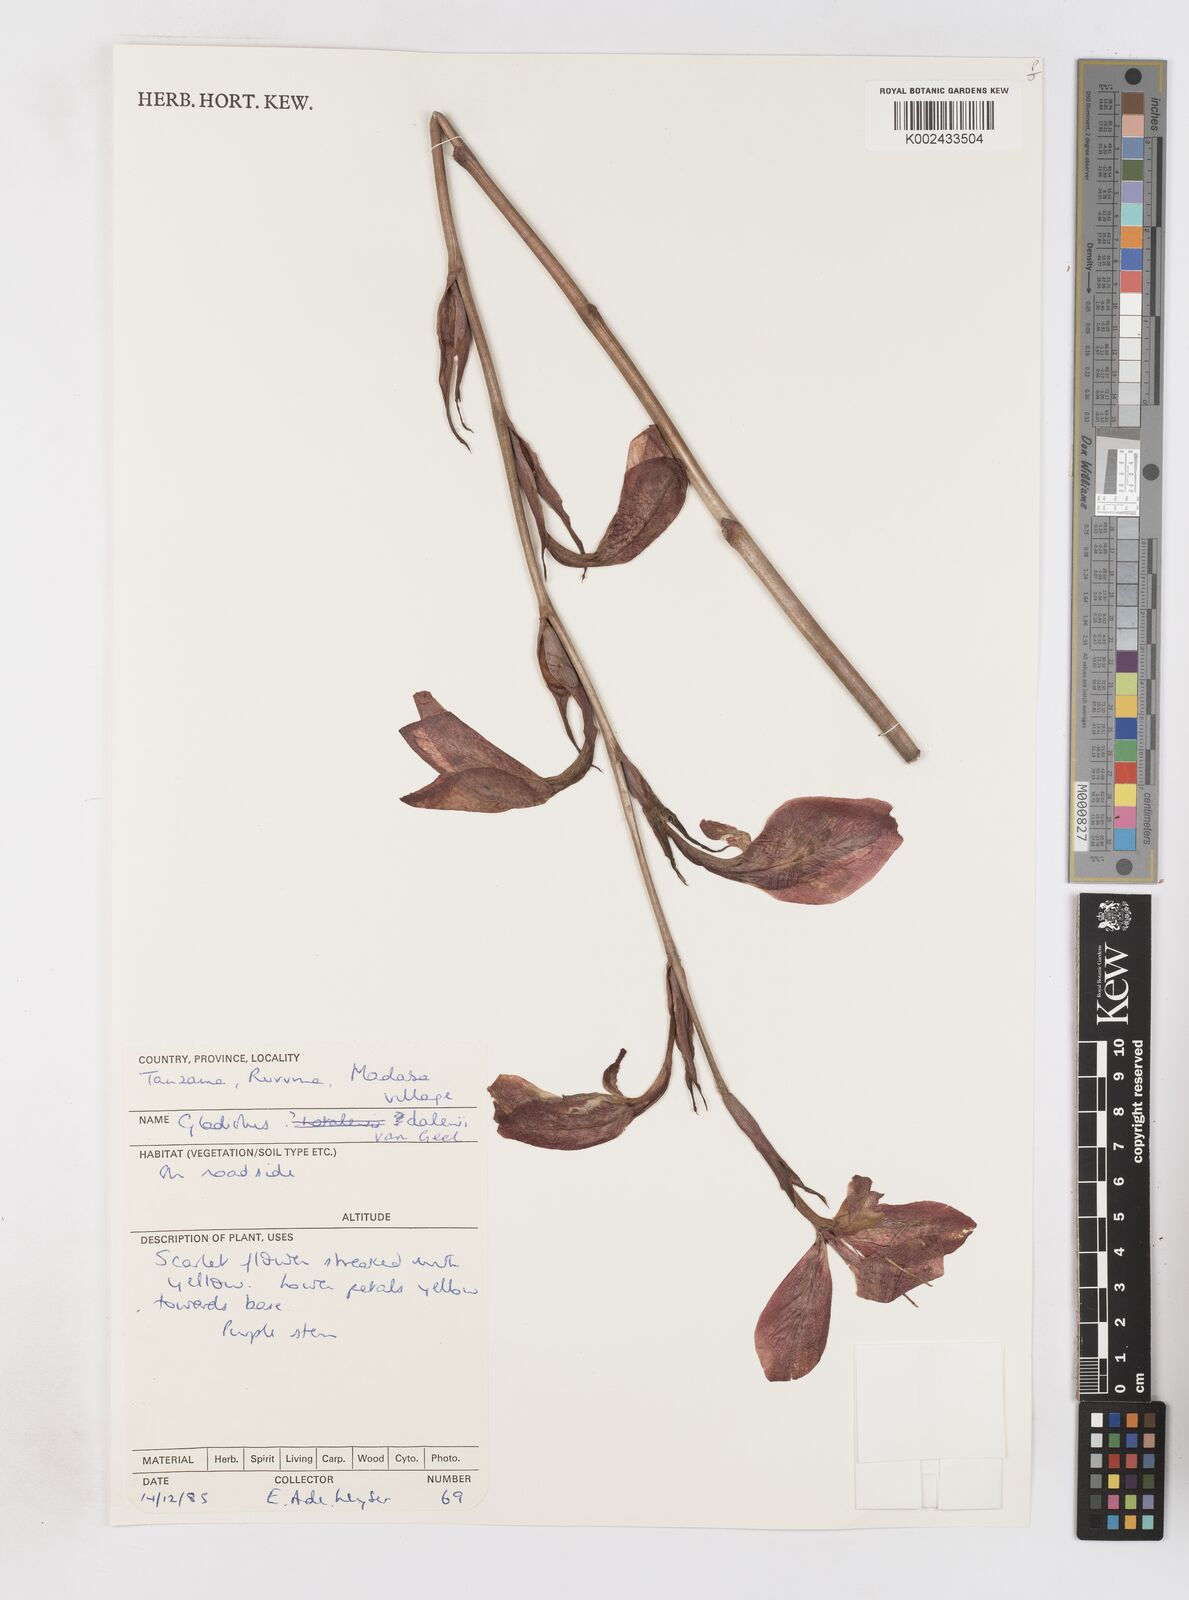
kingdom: Plantae
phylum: Tracheophyta
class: Liliopsida
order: Asparagales
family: Iridaceae
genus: Gladiolus
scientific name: Gladiolus dalenii
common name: Cornflag
